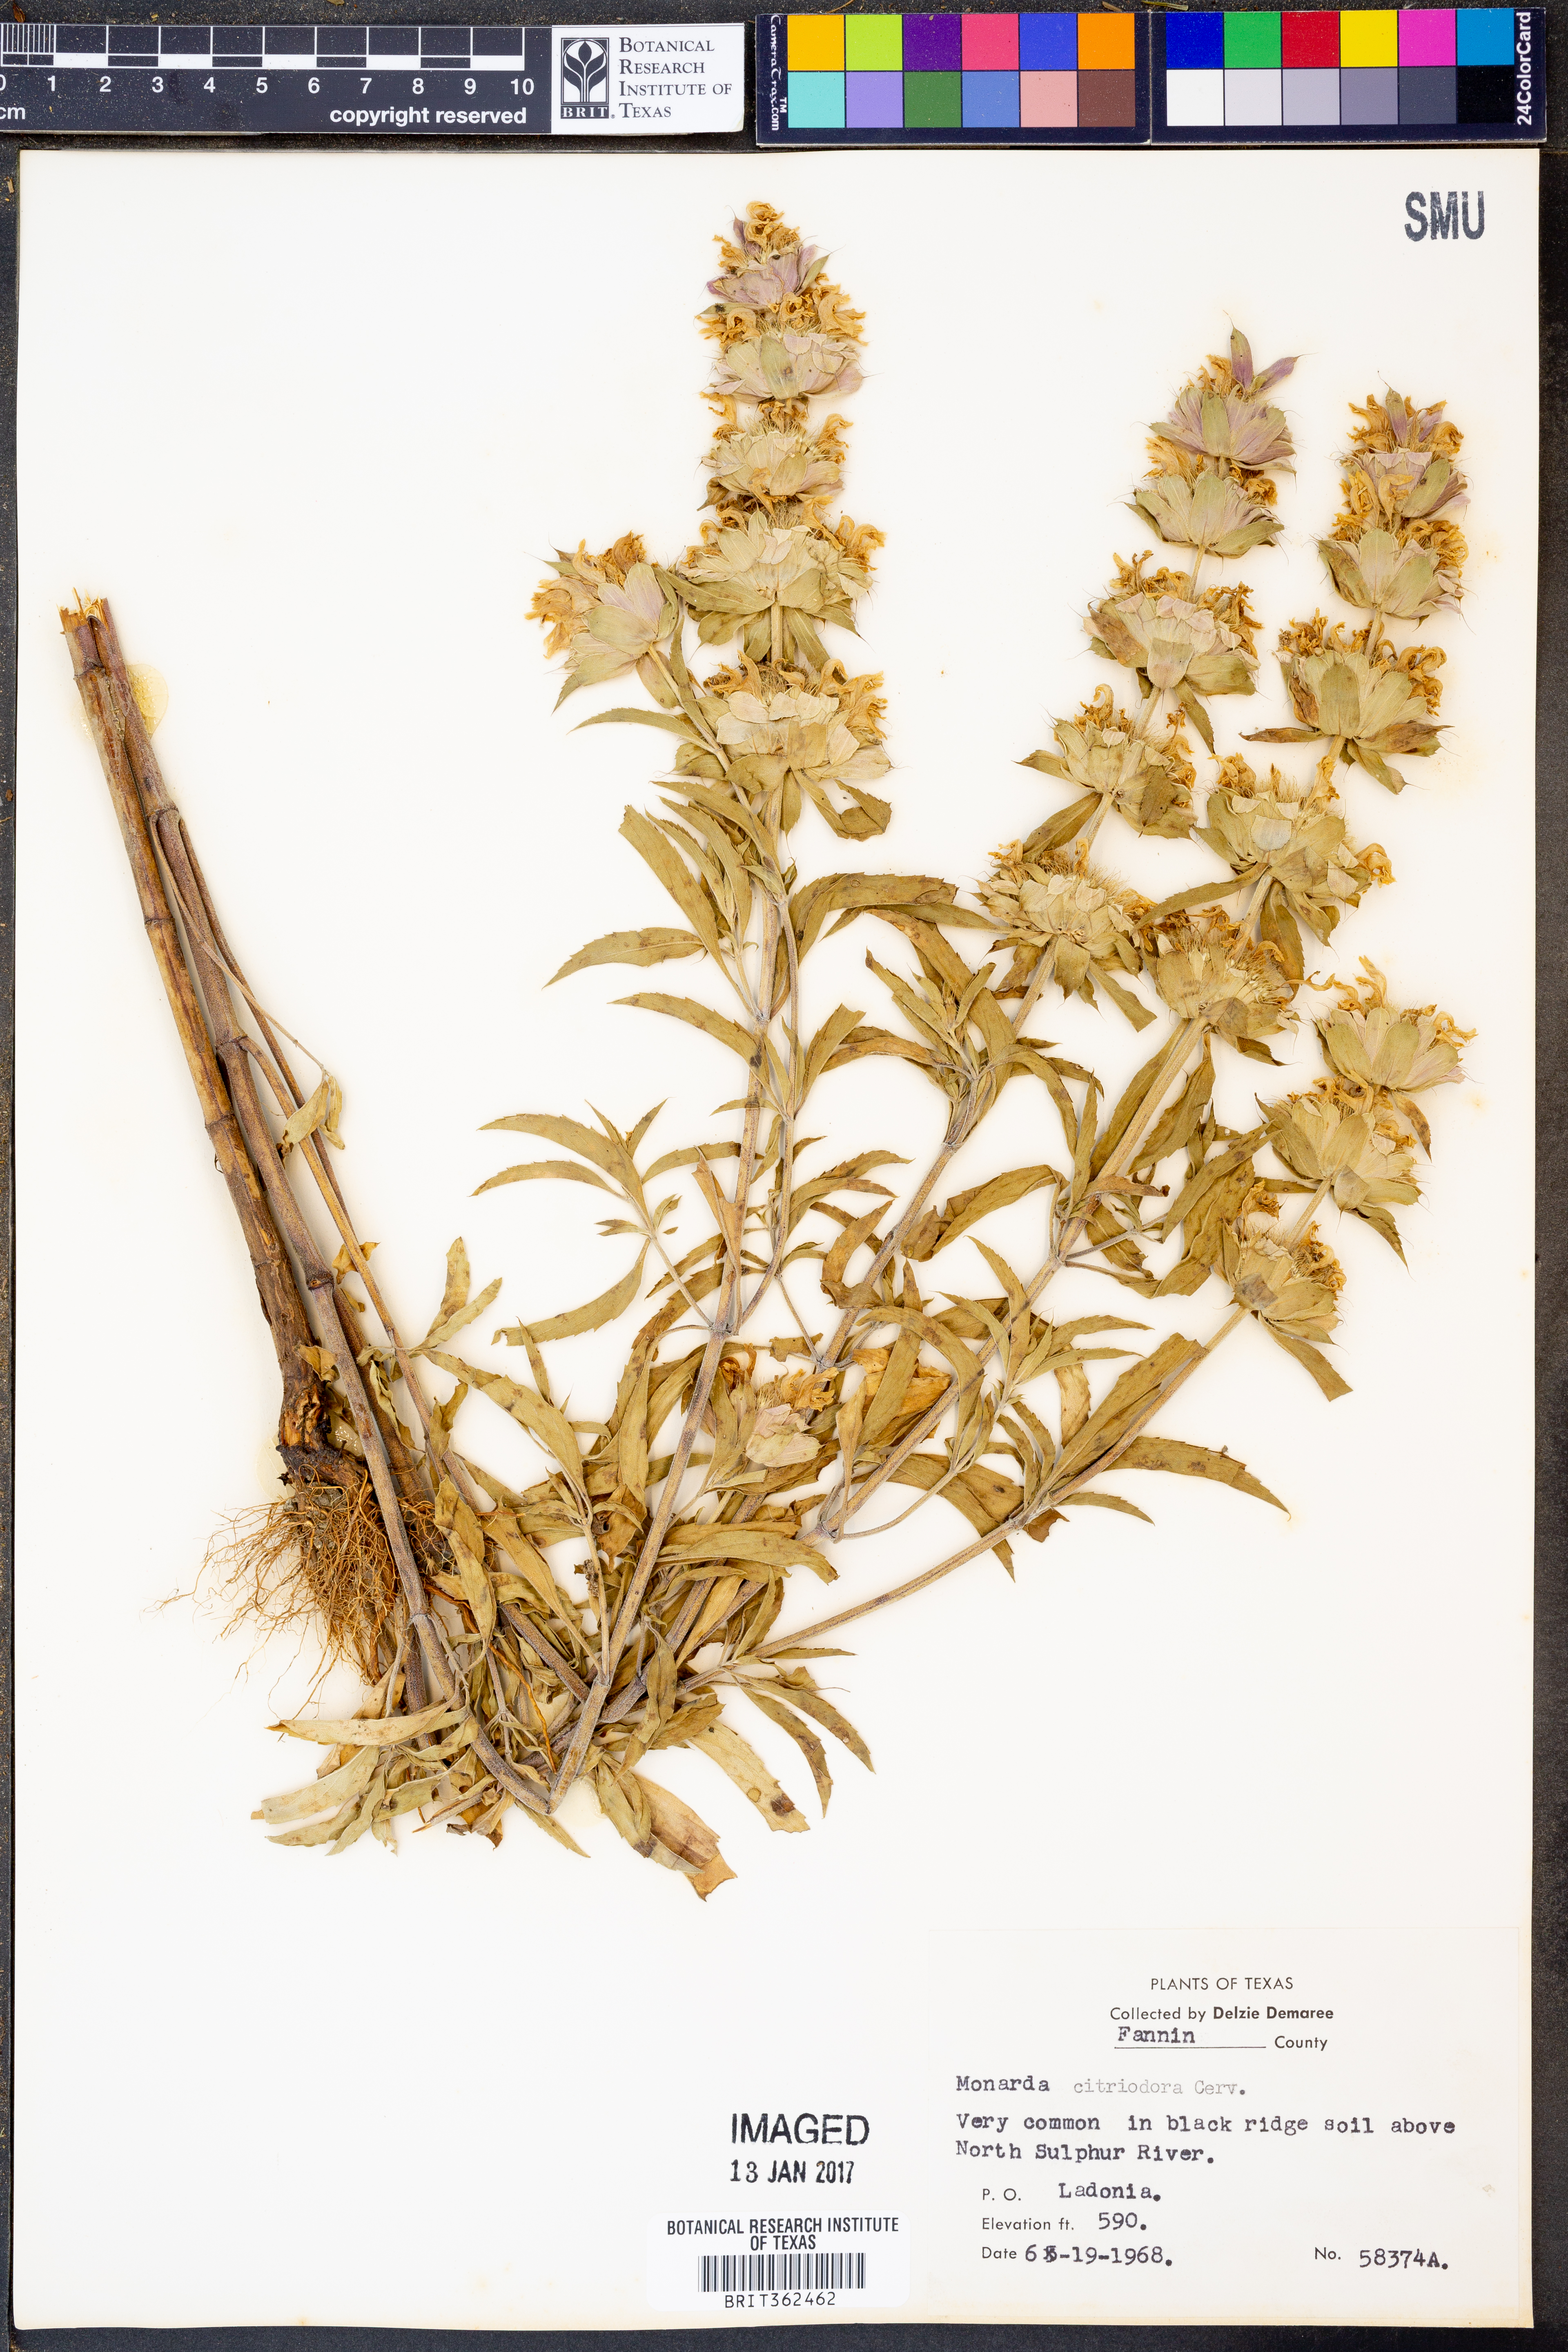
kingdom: Plantae
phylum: Tracheophyta
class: Magnoliopsida
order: Lamiales
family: Lamiaceae
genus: Monarda
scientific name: Monarda citriodora
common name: Lemon beebalm
